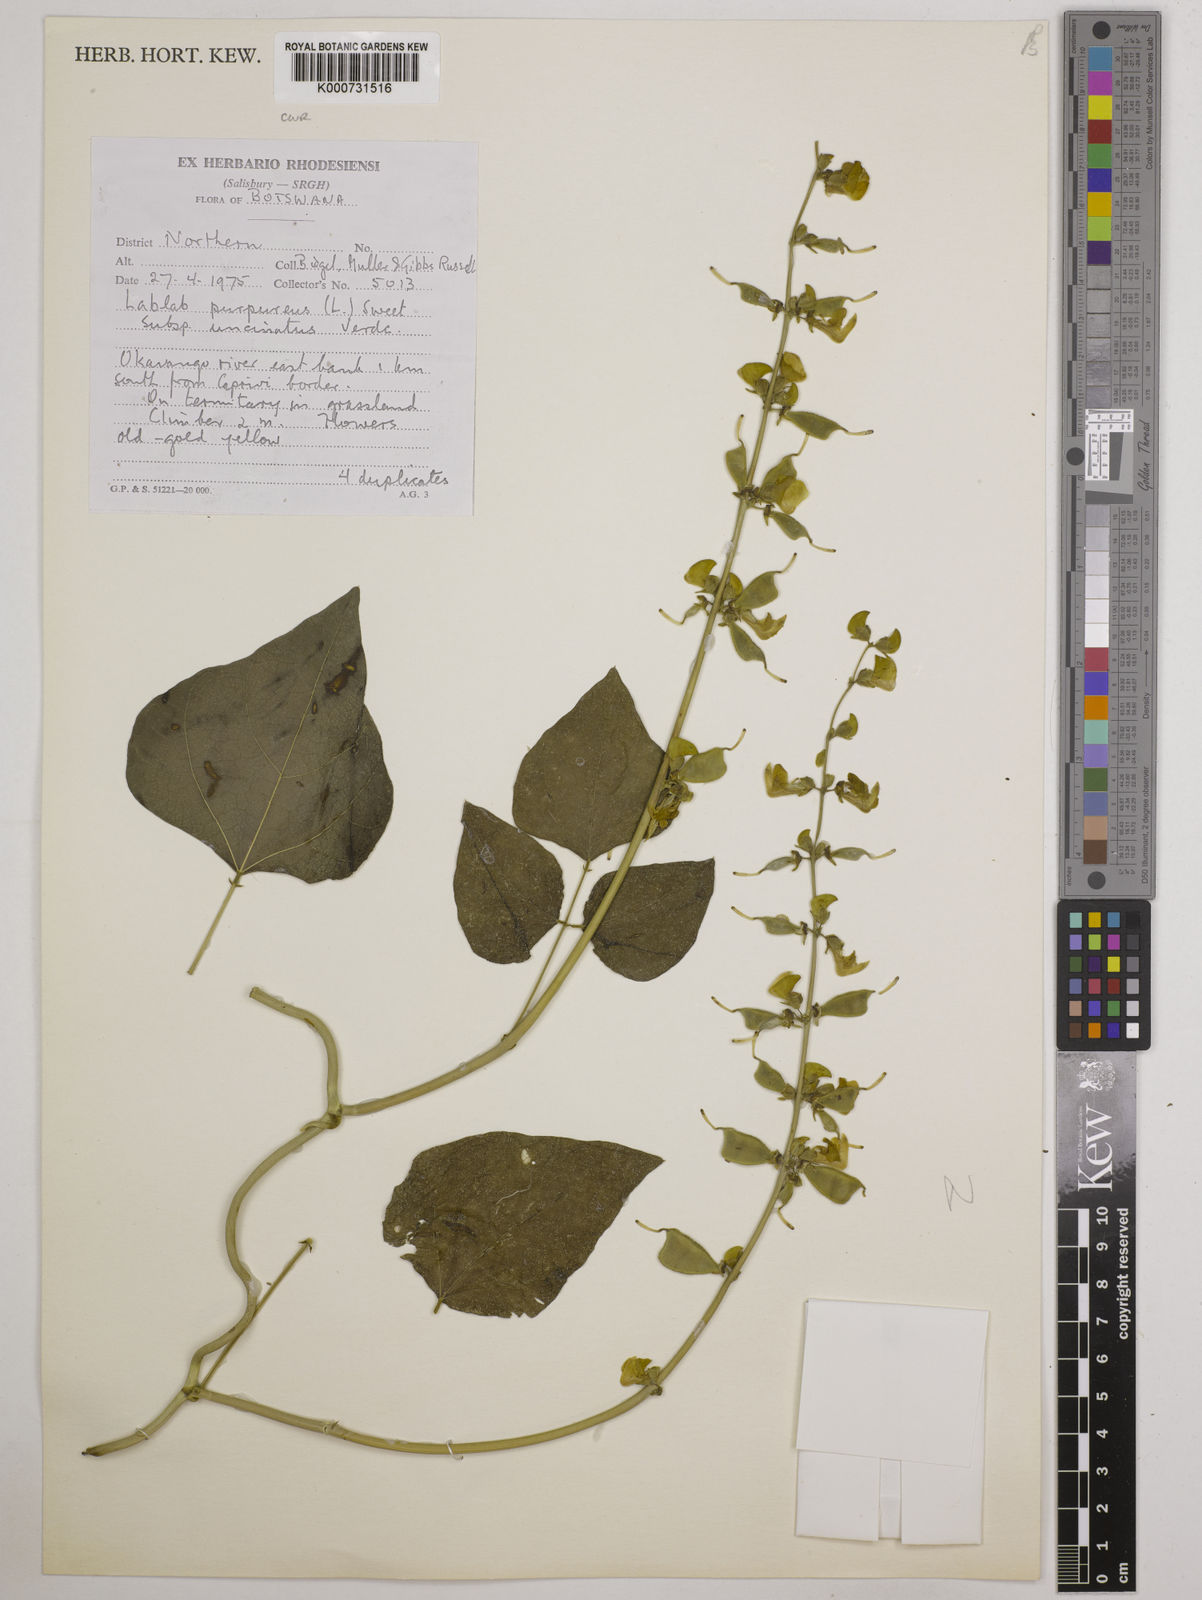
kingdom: Plantae
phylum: Tracheophyta
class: Magnoliopsida
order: Fabales
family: Fabaceae
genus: Lablab
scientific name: Lablab purpureus
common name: Lablab-bean
